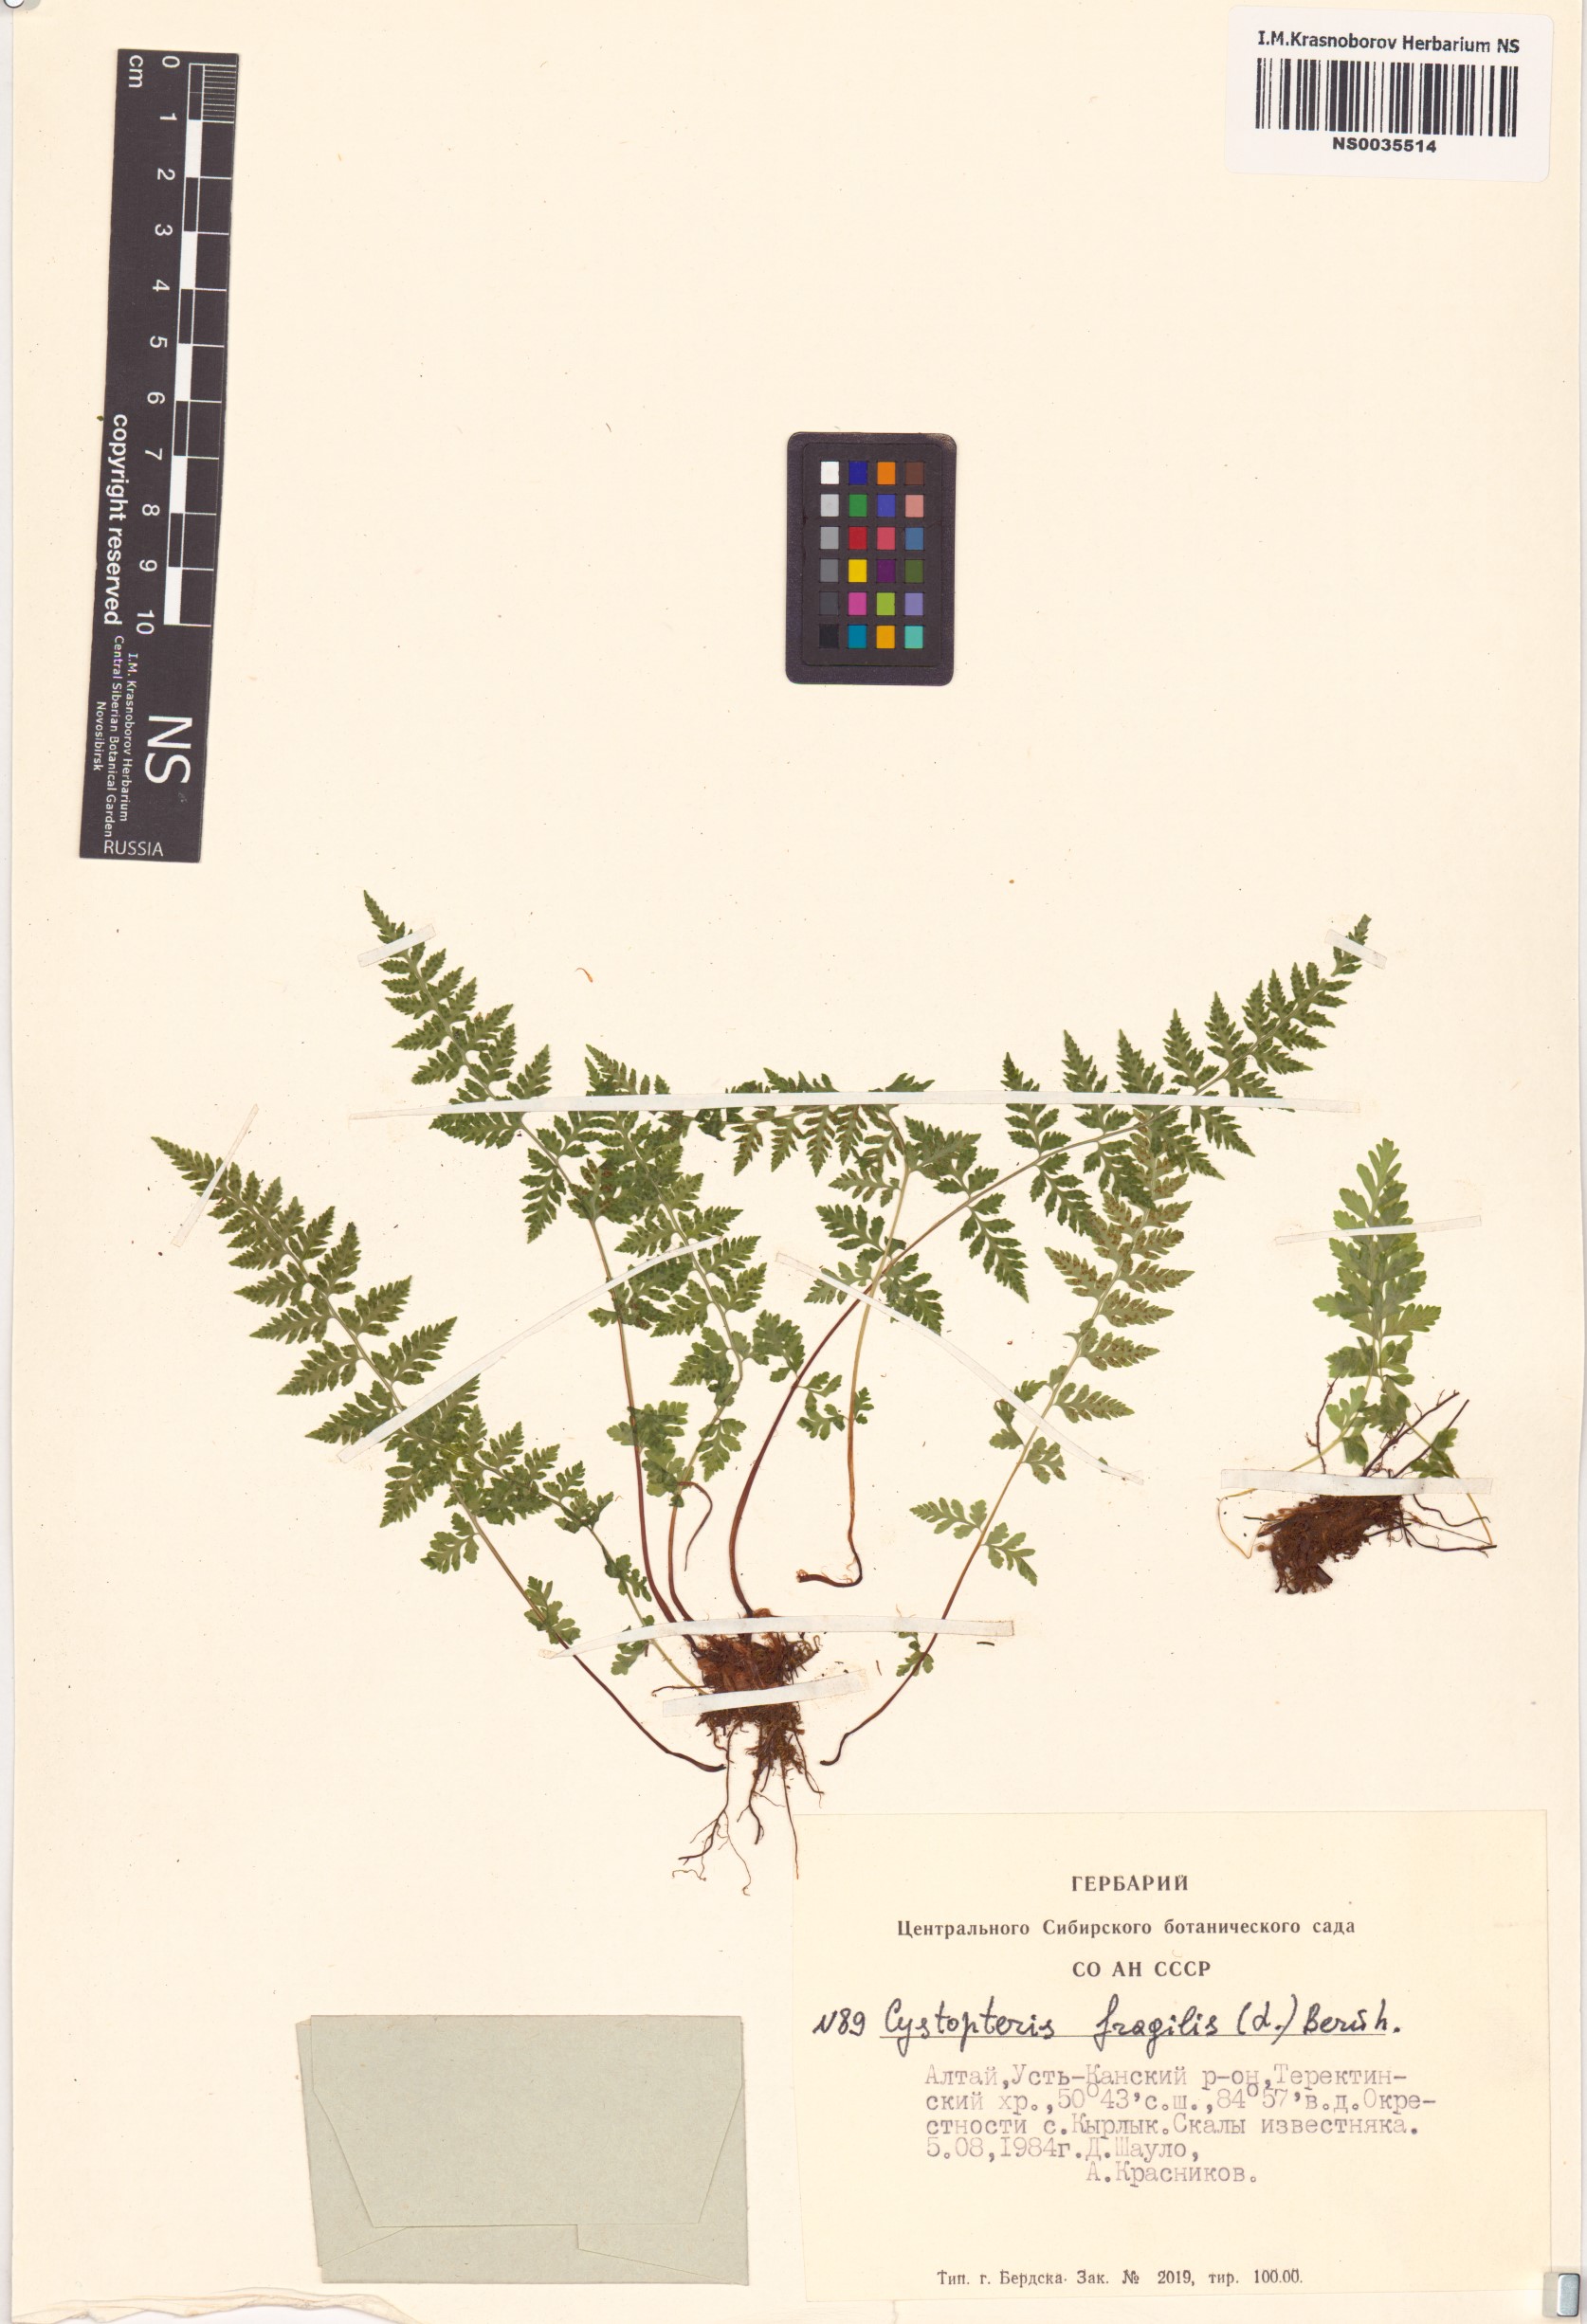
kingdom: Plantae
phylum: Tracheophyta
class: Polypodiopsida
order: Polypodiales
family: Cystopteridaceae
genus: Cystopteris
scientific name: Cystopteris fragilis
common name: Brittle bladder fern
